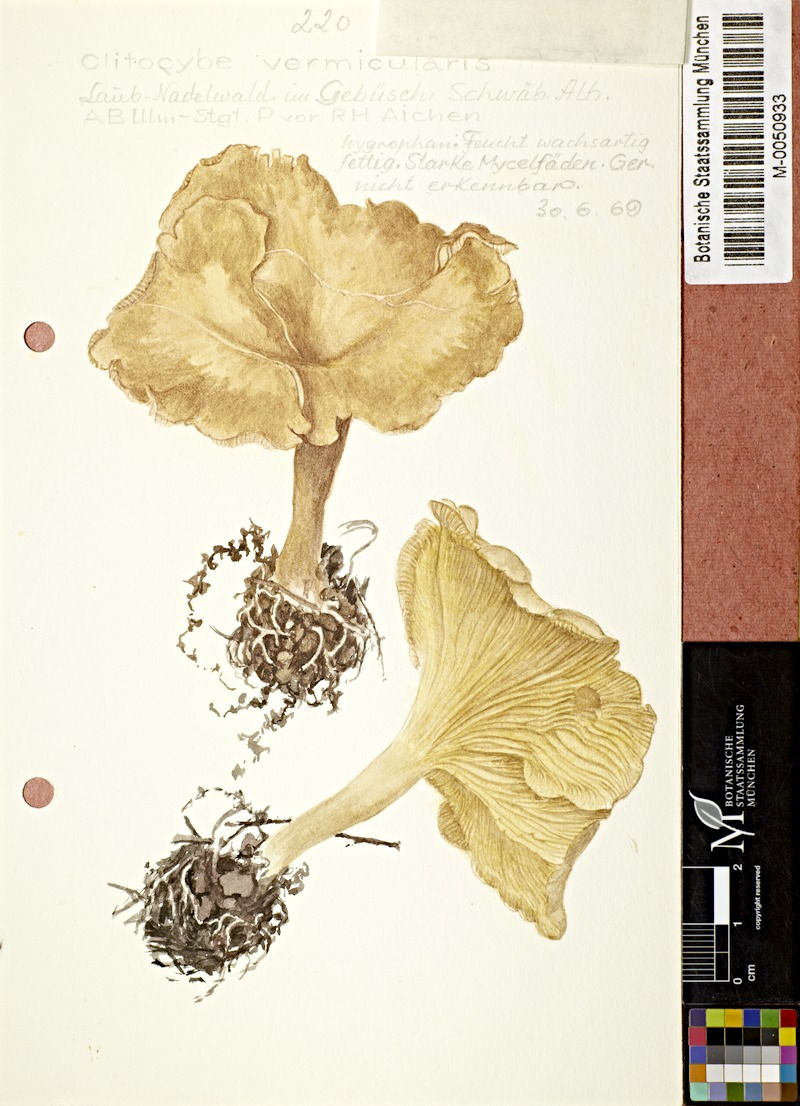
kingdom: Fungi
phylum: Basidiomycota
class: Agaricomycetes
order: Agaricales
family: Tricholomataceae
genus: Rhizocybe
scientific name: Rhizocybe vermicularis
